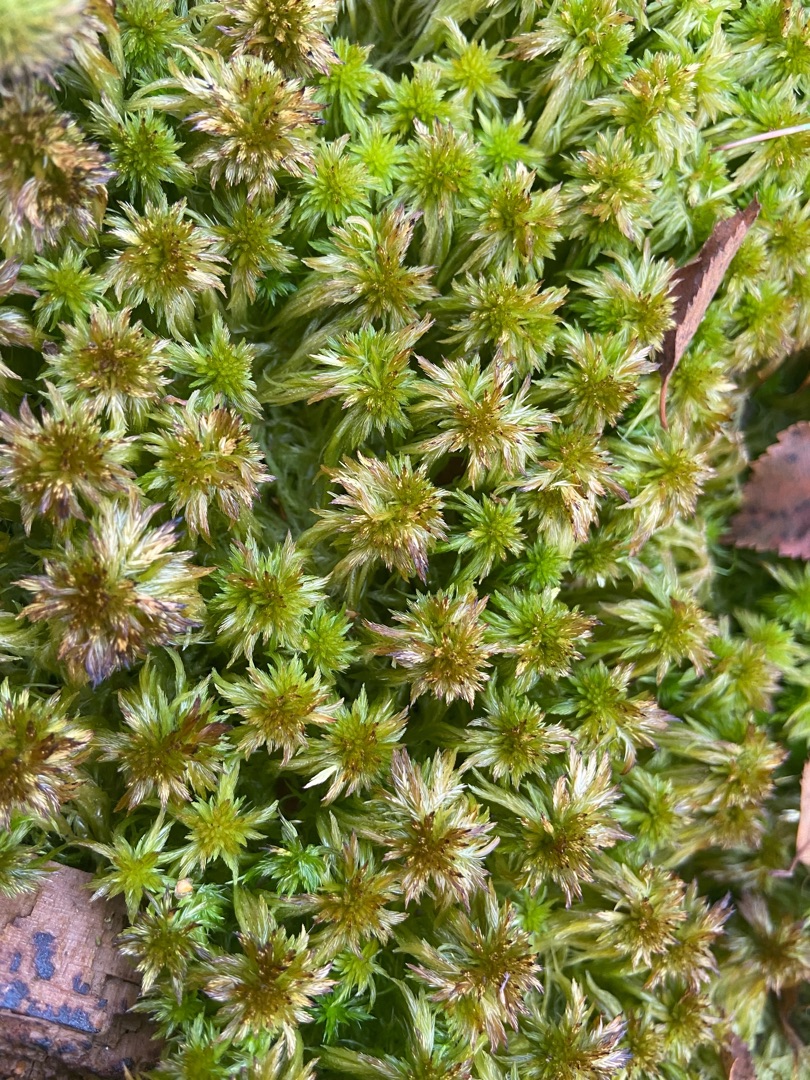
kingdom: Plantae
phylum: Bryophyta
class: Sphagnopsida
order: Sphagnales
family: Sphagnaceae
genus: Sphagnum
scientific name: Sphagnum cuspidatum
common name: Pjusket tørvemos
